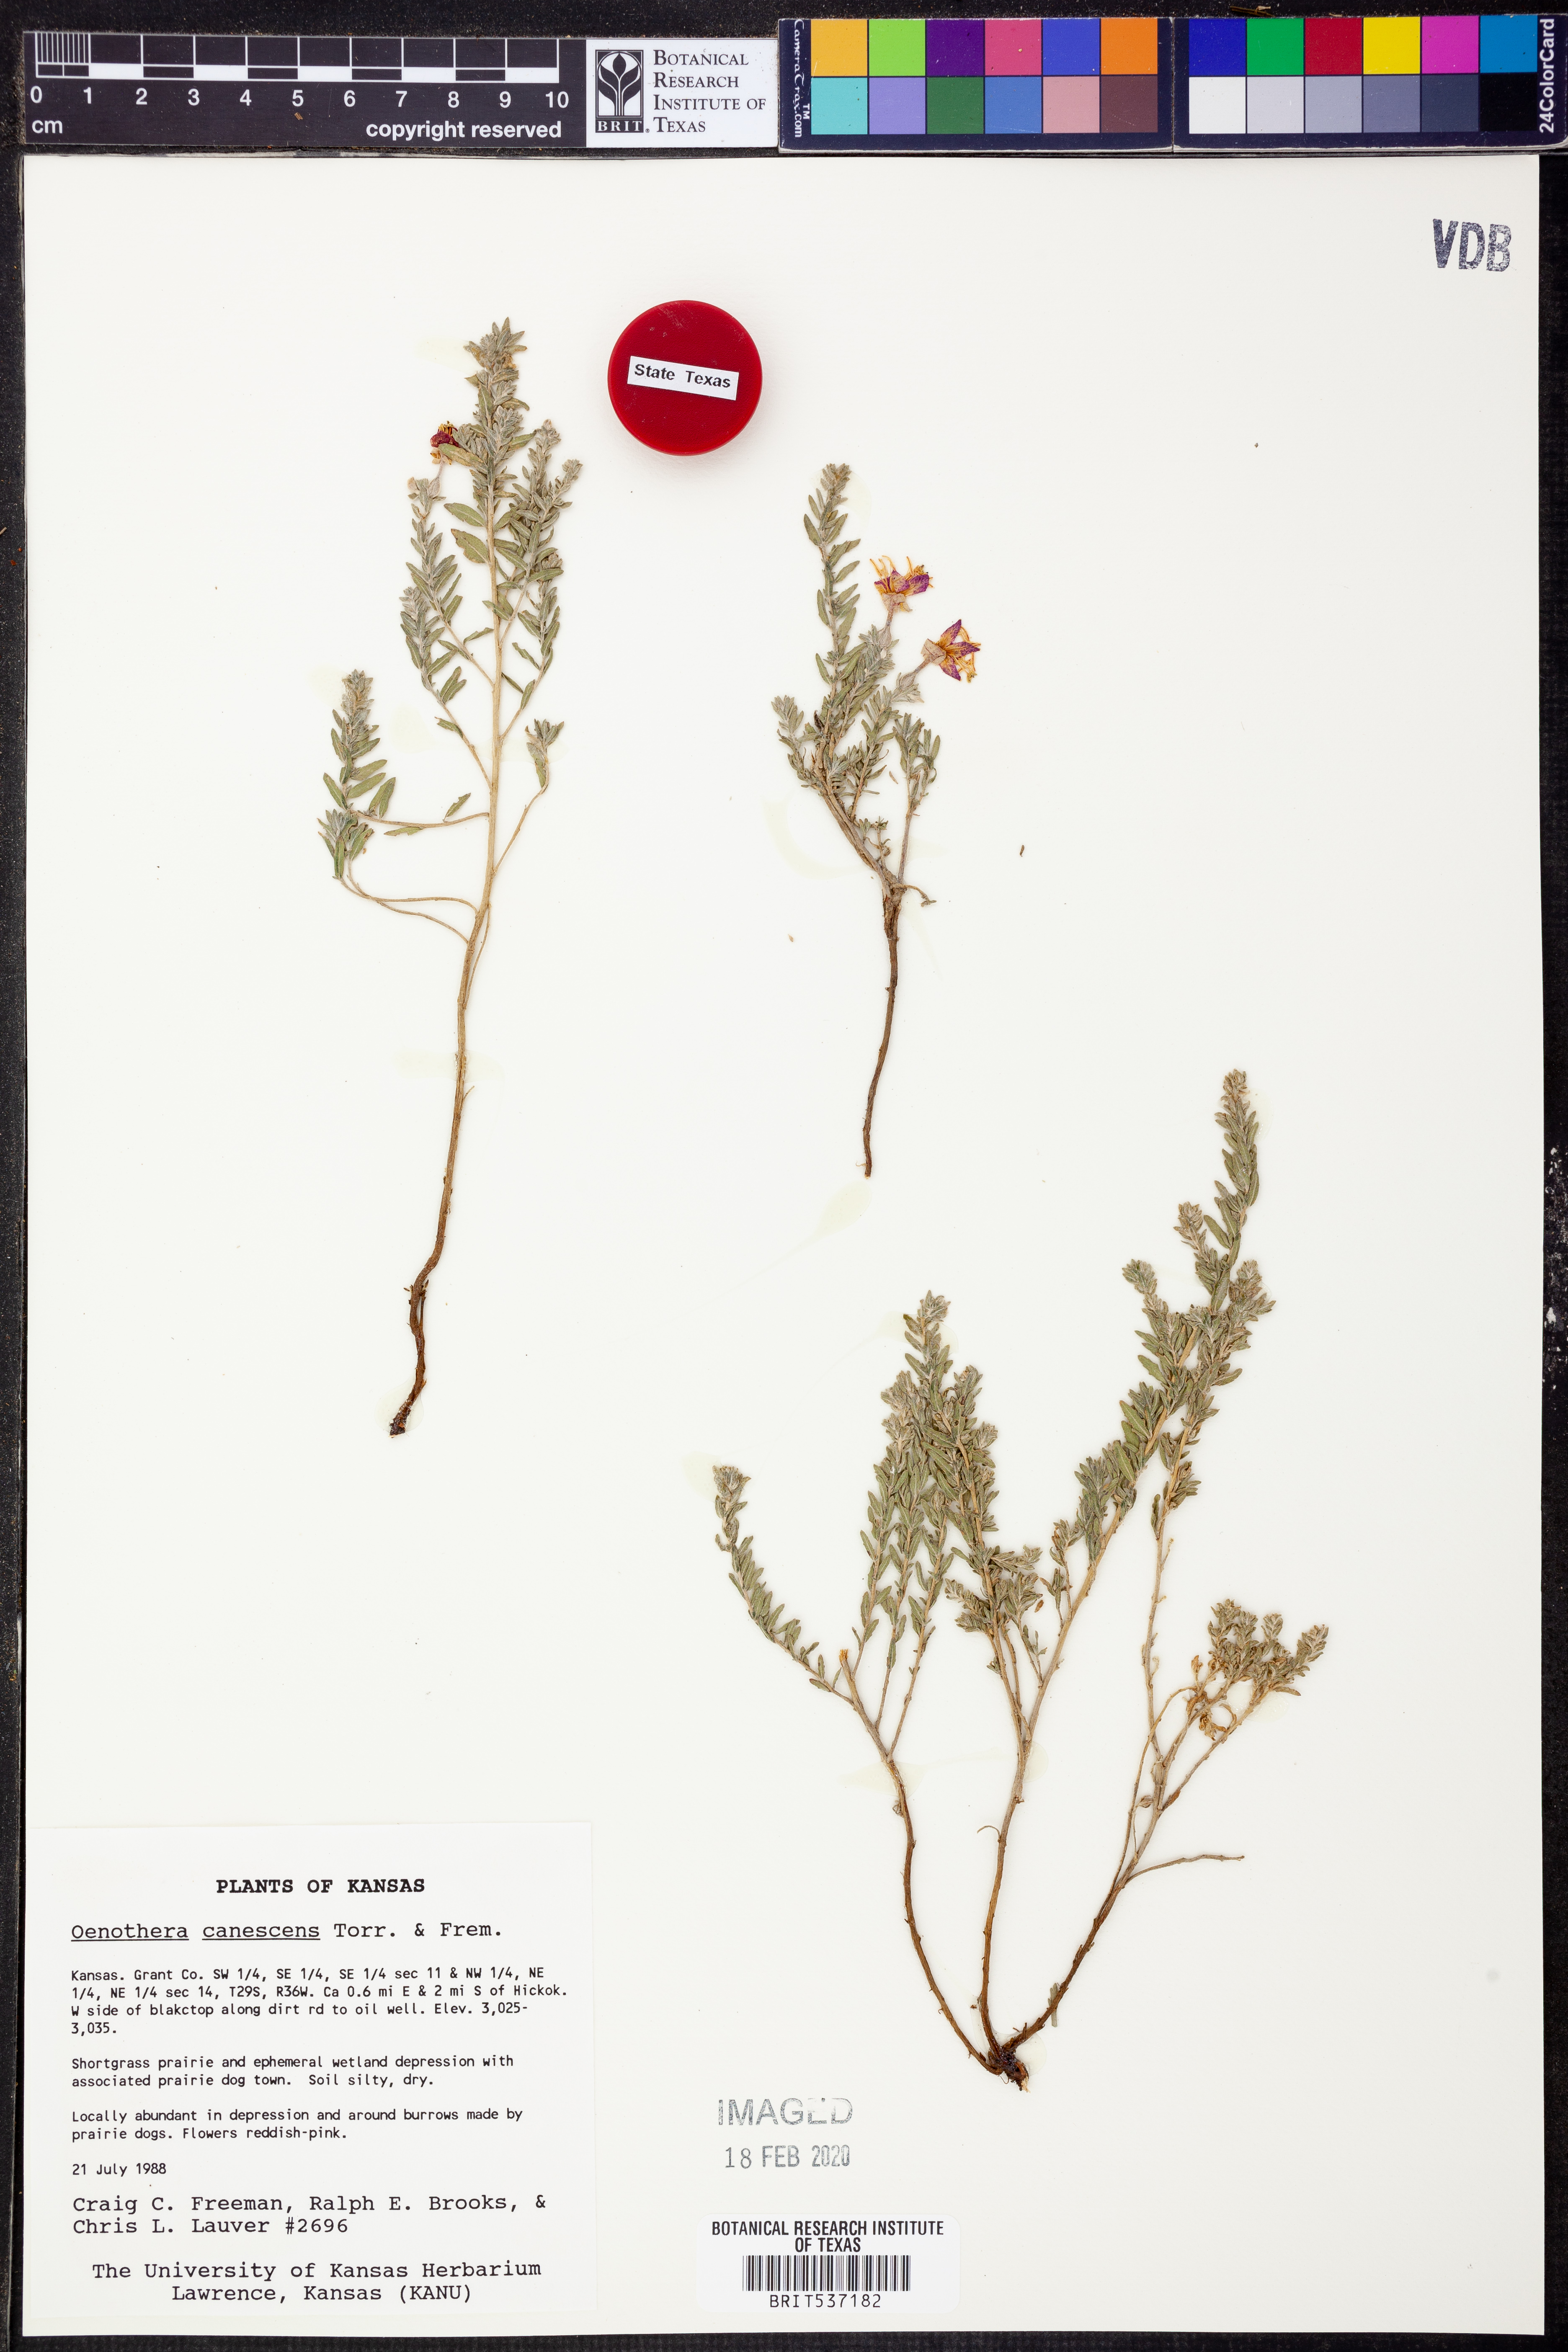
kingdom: Plantae
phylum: Tracheophyta
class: Magnoliopsida
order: Myrtales
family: Onagraceae
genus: Oenothera
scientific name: Oenothera canescens
